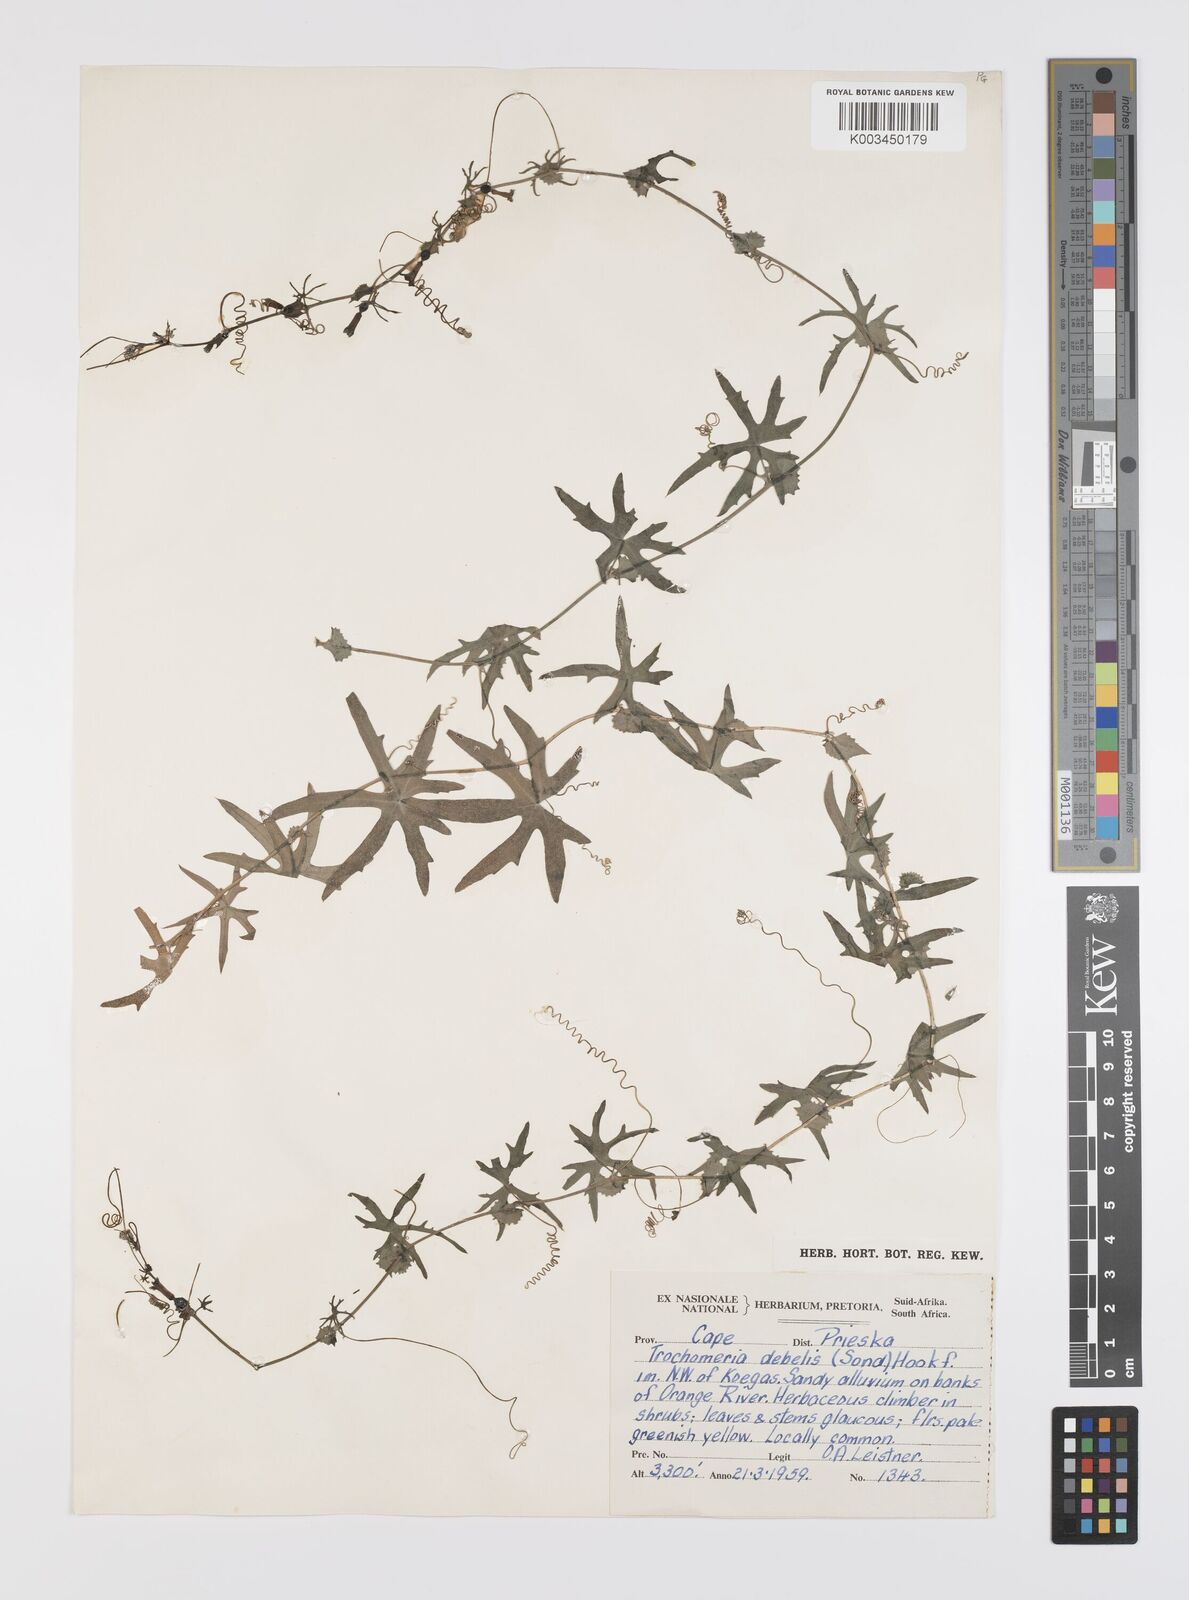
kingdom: Plantae
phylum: Tracheophyta
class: Magnoliopsida
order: Cucurbitales
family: Cucurbitaceae
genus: Trochomeria
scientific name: Trochomeria debilis
